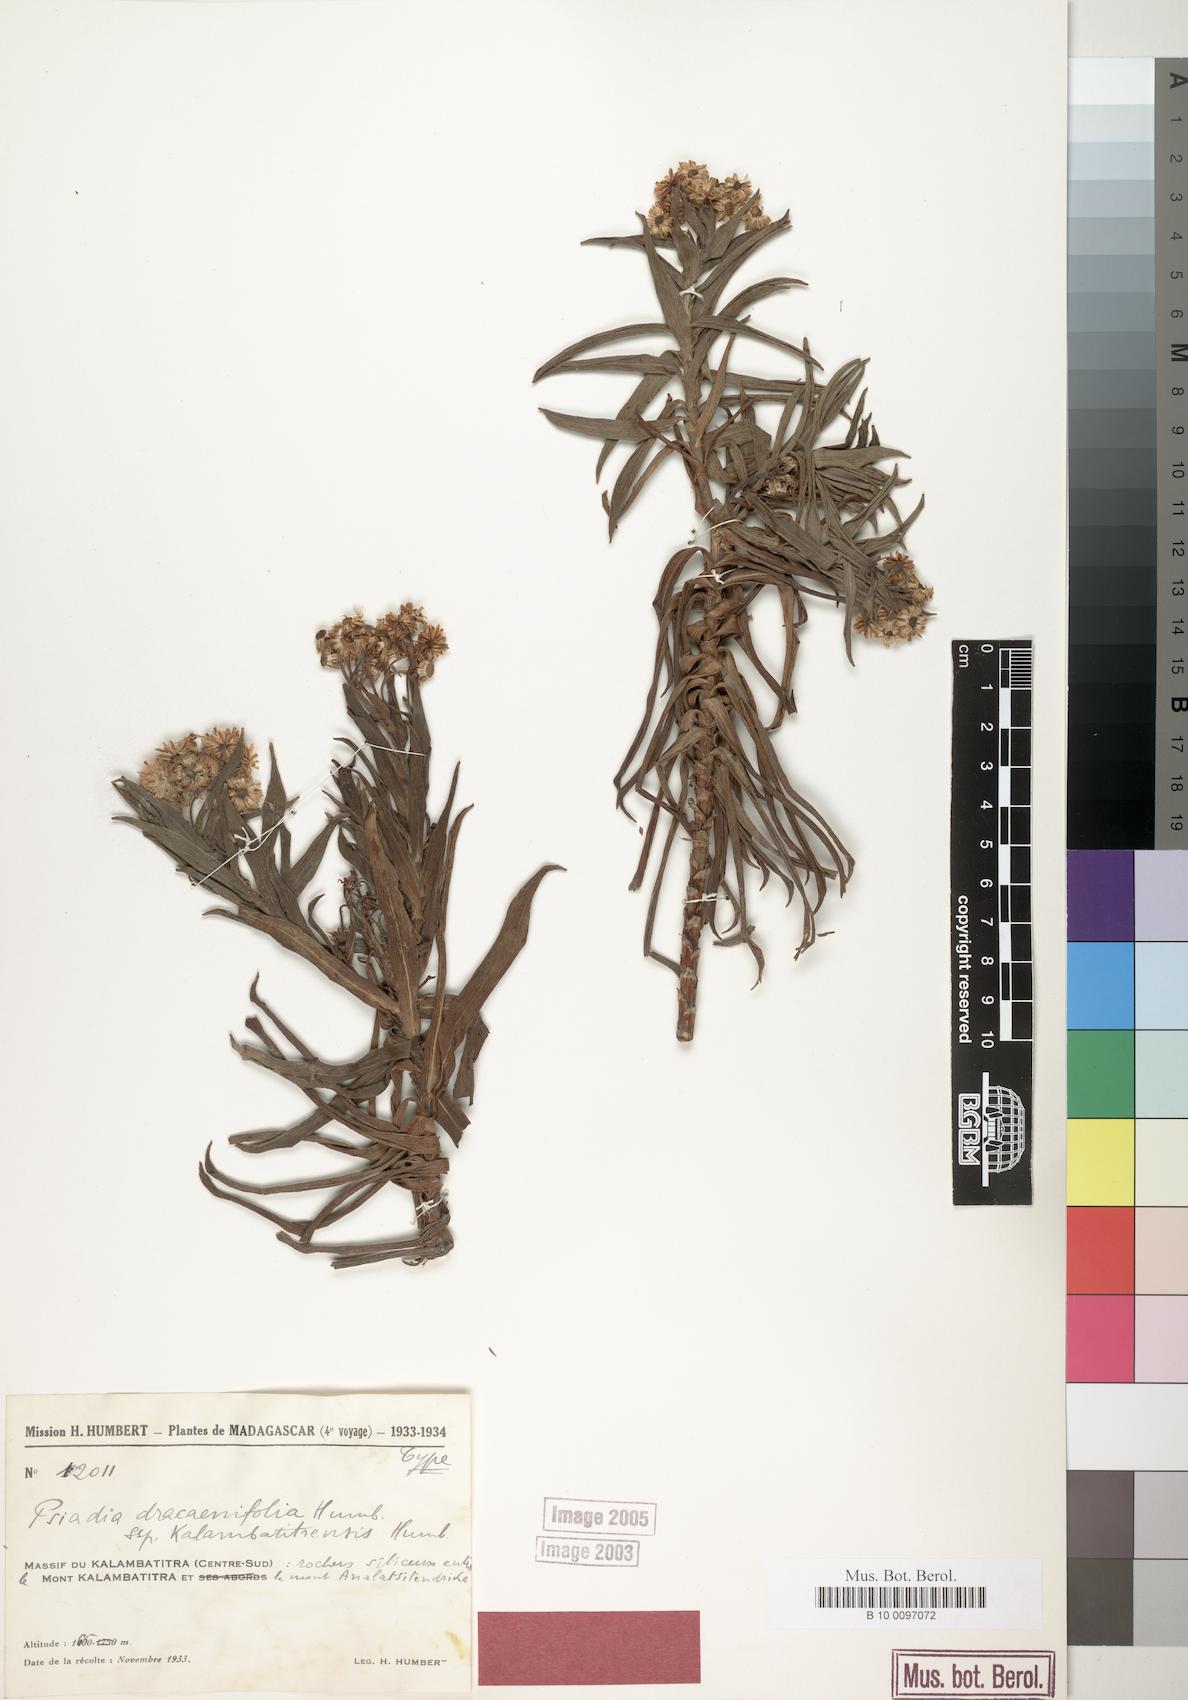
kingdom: Plantae
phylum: Tracheophyta
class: Magnoliopsida
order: Asterales
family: Asteraceae
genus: Psiadia
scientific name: Psiadia dracaenifolia
